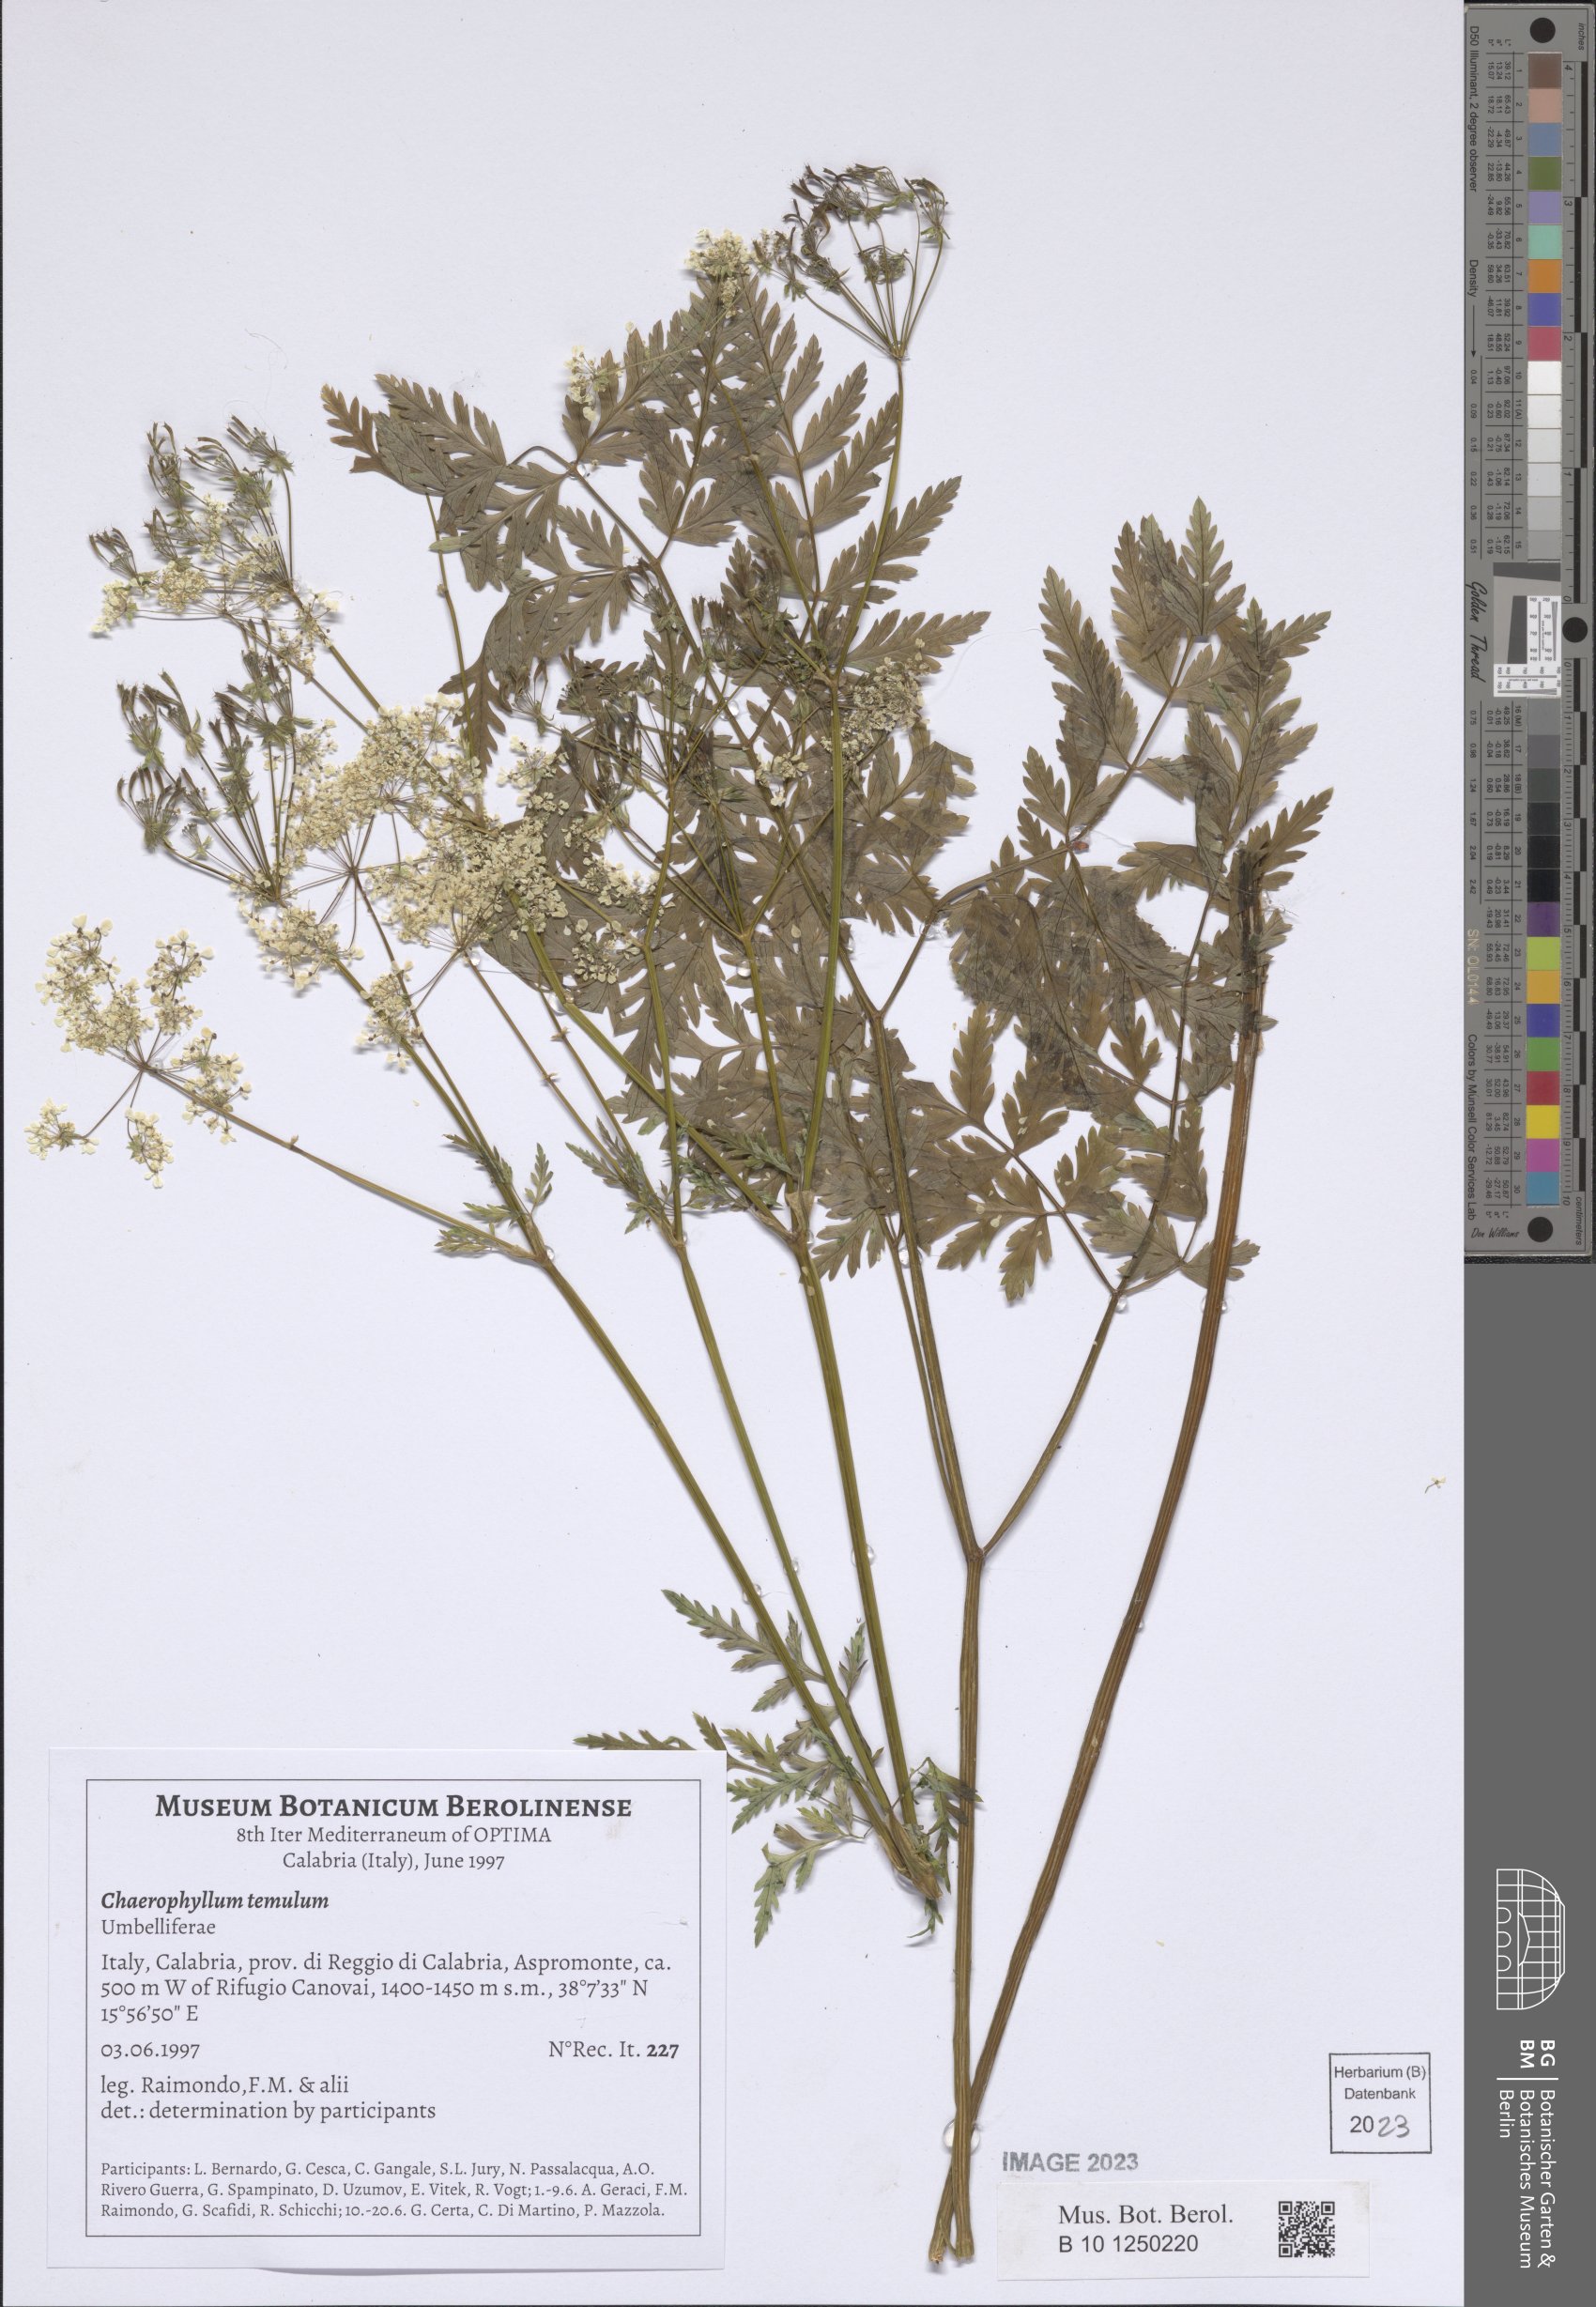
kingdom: Plantae
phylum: Tracheophyta
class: Magnoliopsida
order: Apiales
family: Apiaceae
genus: Chaerophyllum
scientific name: Chaerophyllum temulum
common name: Rough chervil
